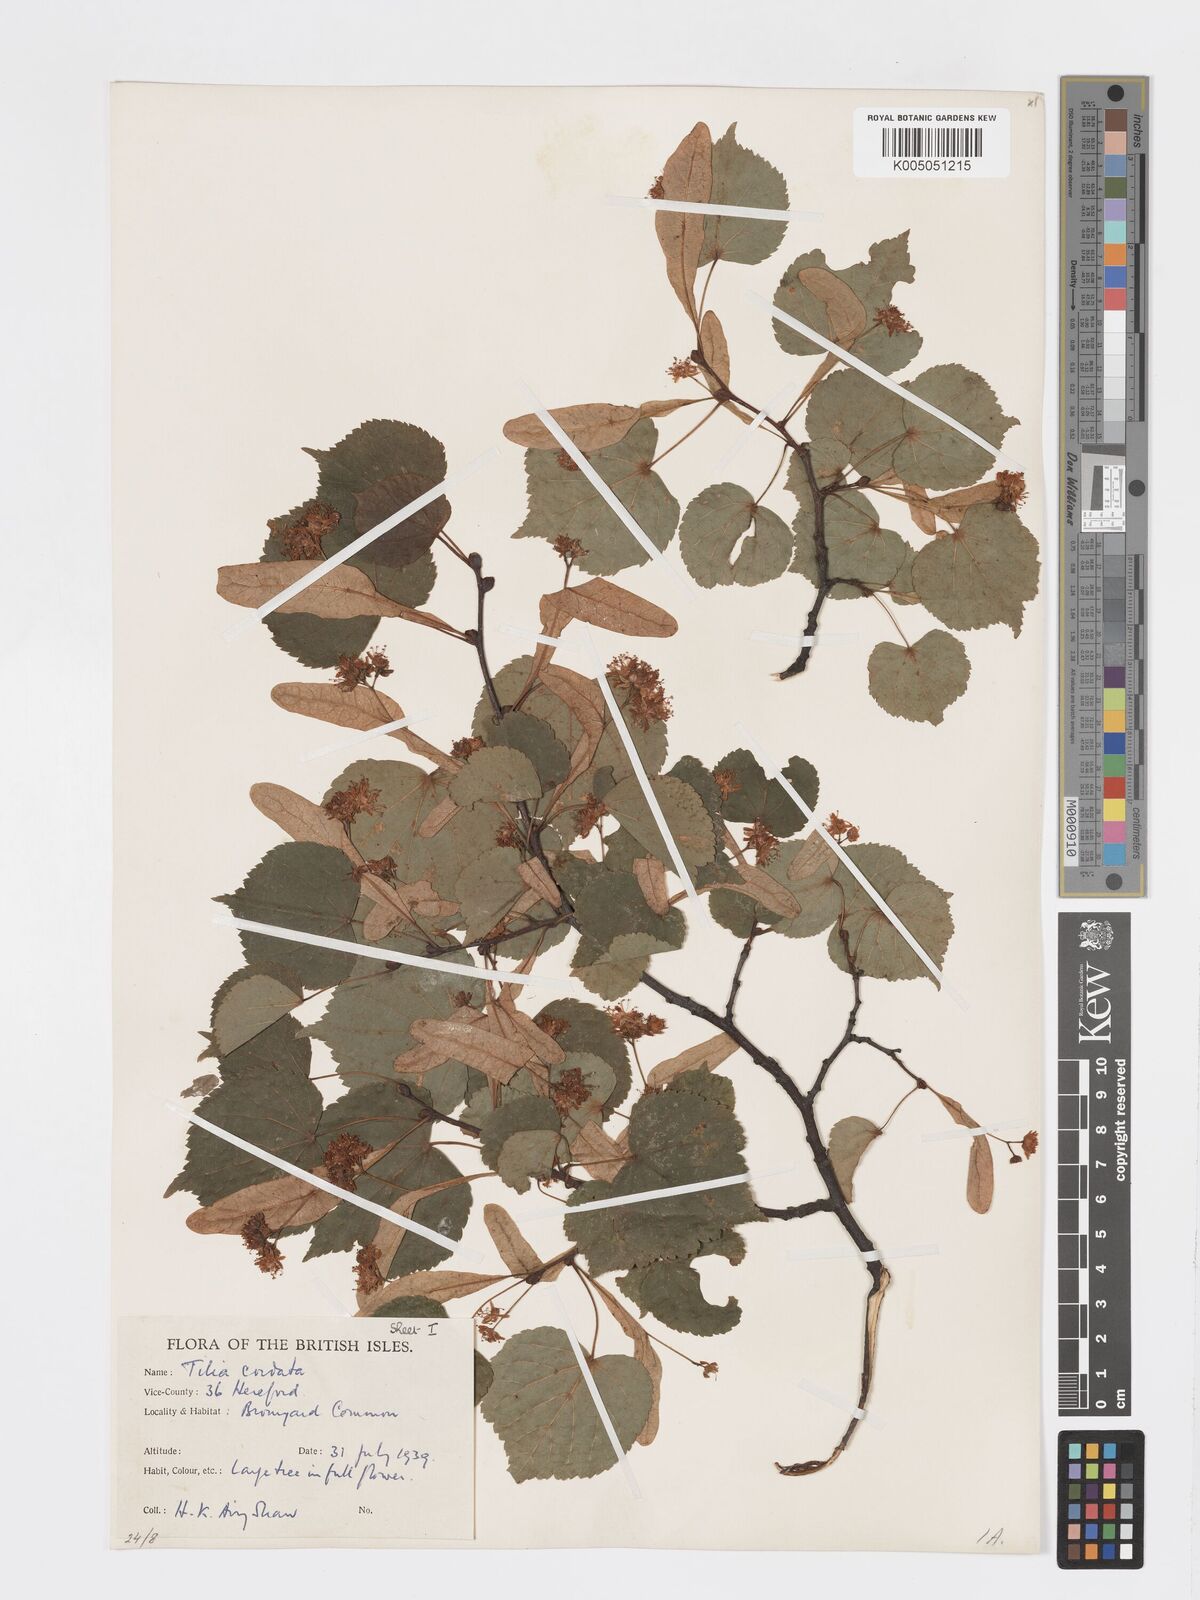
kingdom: Plantae
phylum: Tracheophyta
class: Magnoliopsida
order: Malvales
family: Malvaceae
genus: Tilia
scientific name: Tilia cordata
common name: Small-leaved lime
